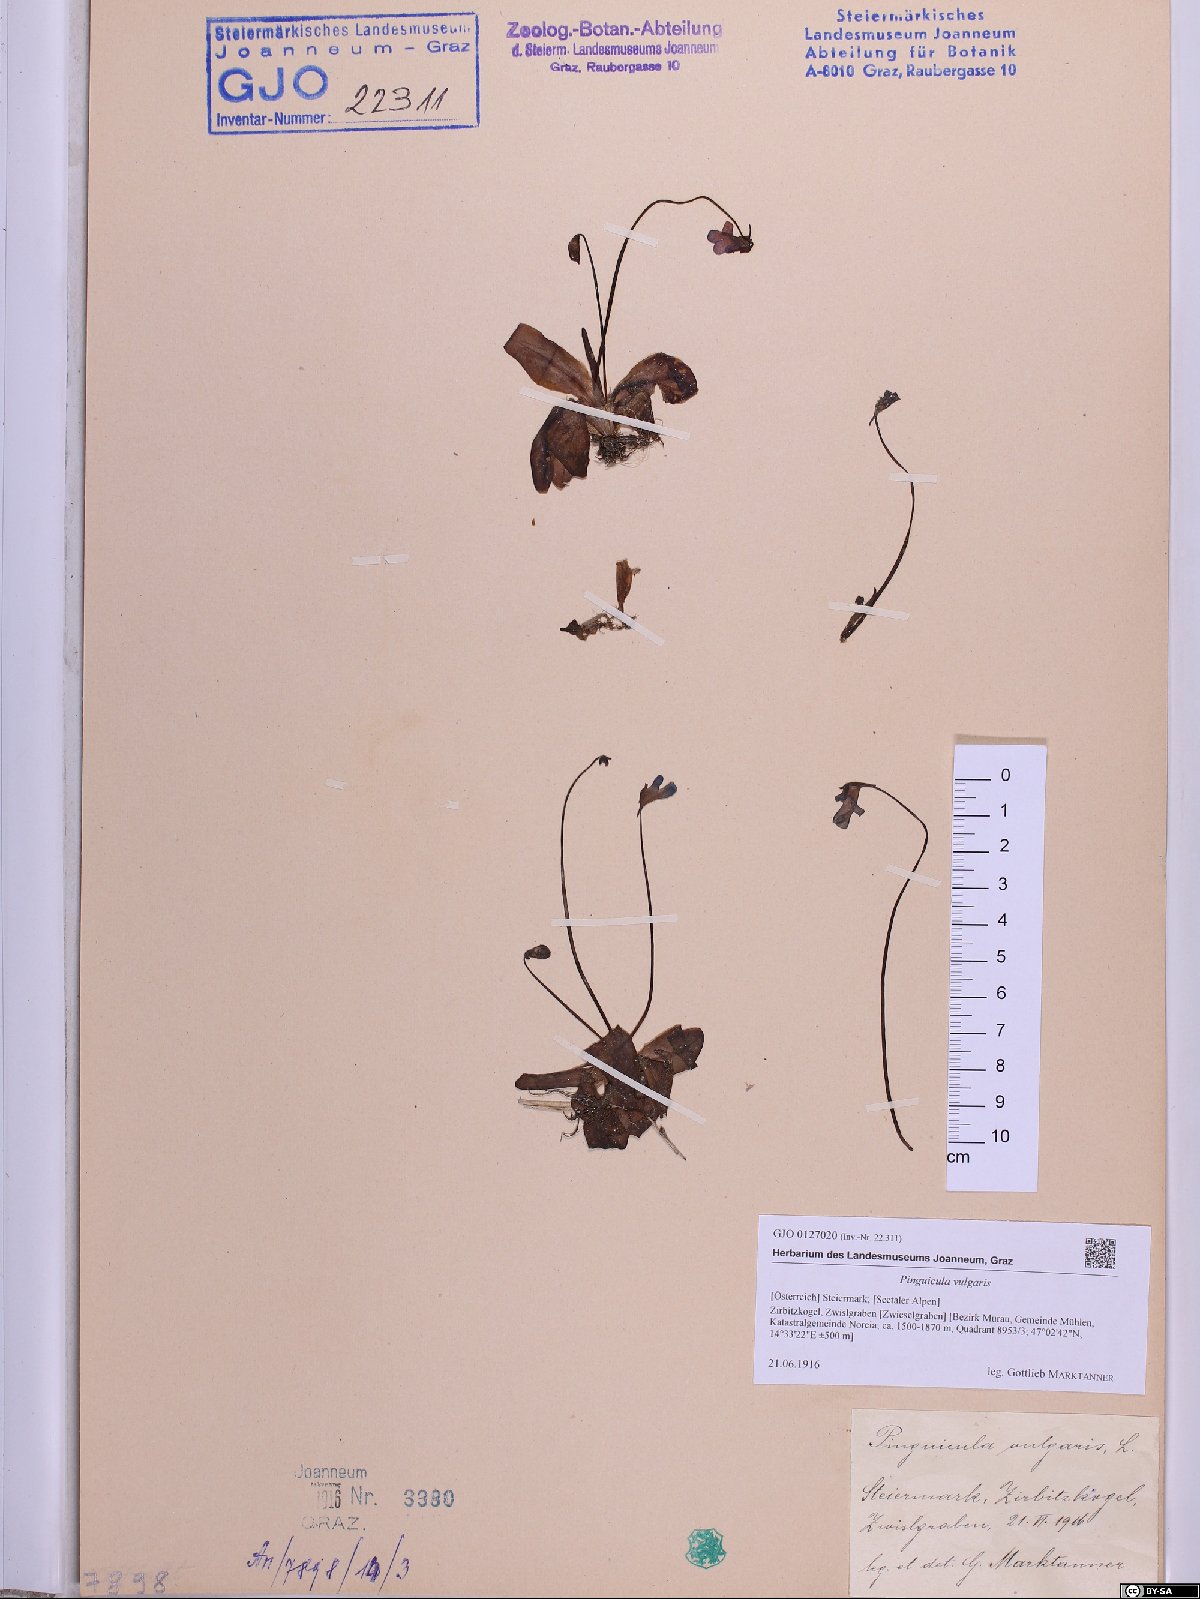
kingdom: Plantae
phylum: Tracheophyta
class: Magnoliopsida
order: Lamiales
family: Lentibulariaceae
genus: Pinguicula
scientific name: Pinguicula vulgaris
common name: Common butterwort
